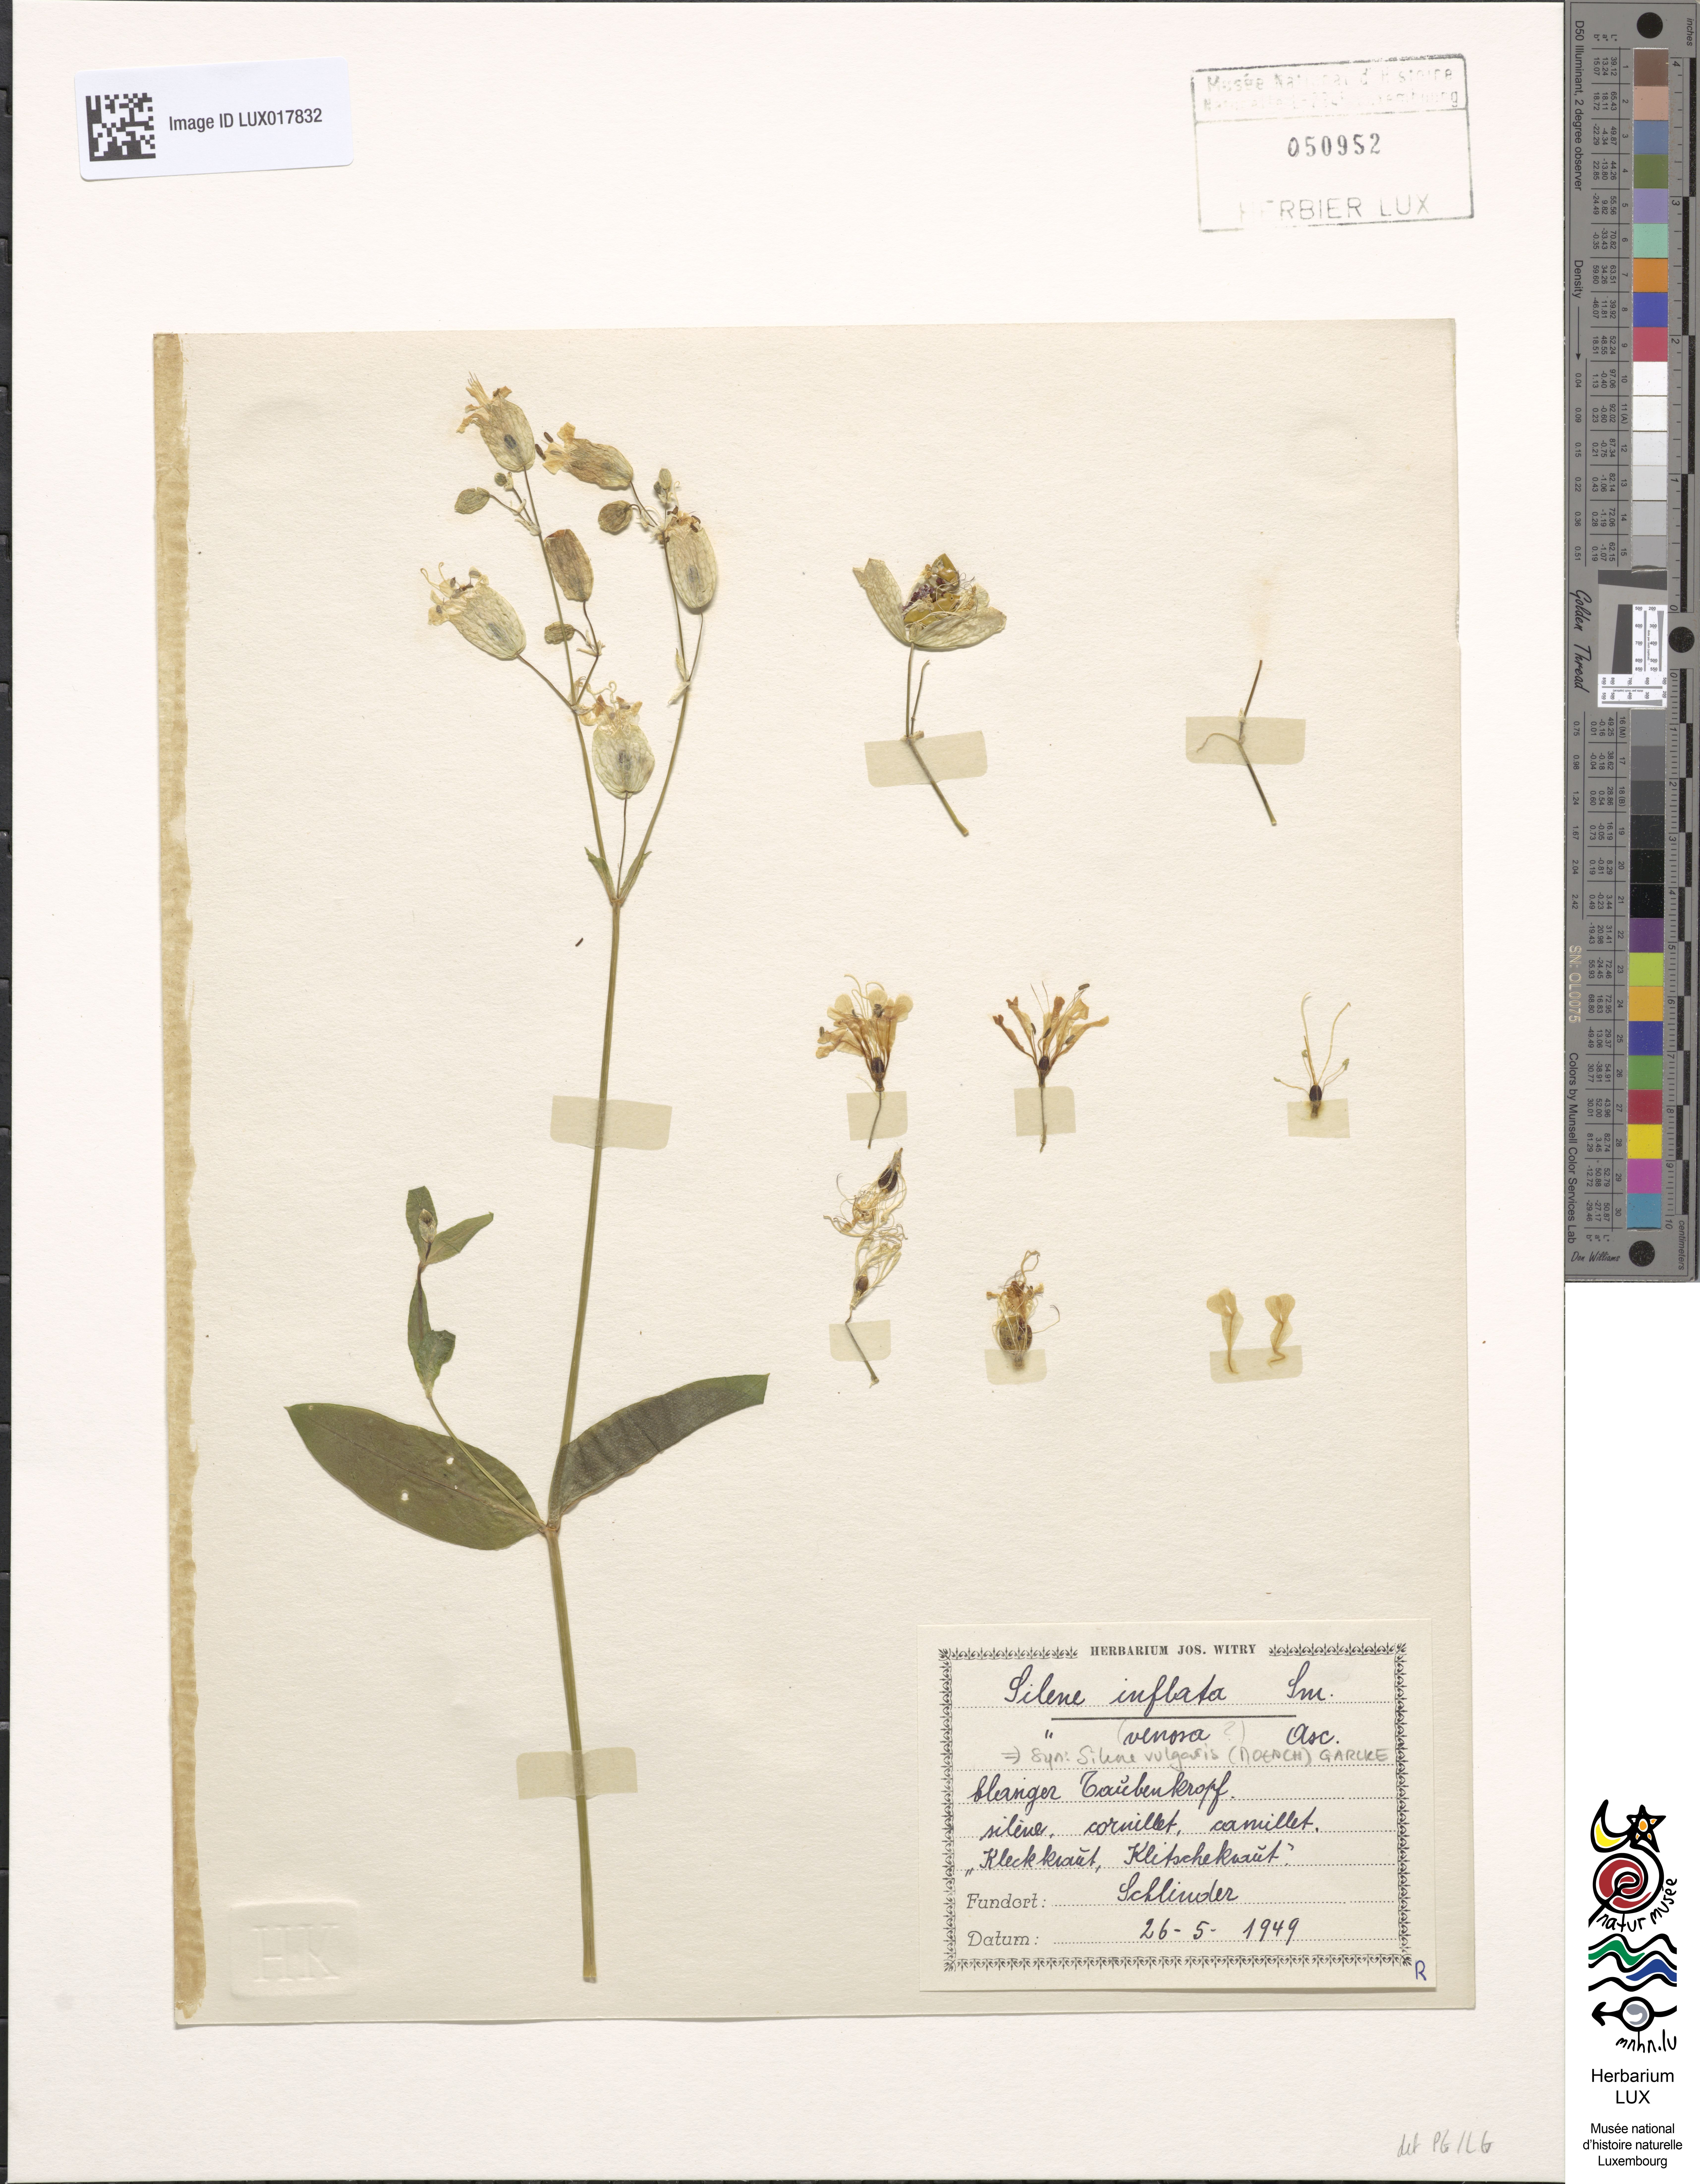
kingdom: Plantae
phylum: Tracheophyta
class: Magnoliopsida
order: Caryophyllales
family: Caryophyllaceae
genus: Silene
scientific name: Silene vulgaris
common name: Bladder campion
